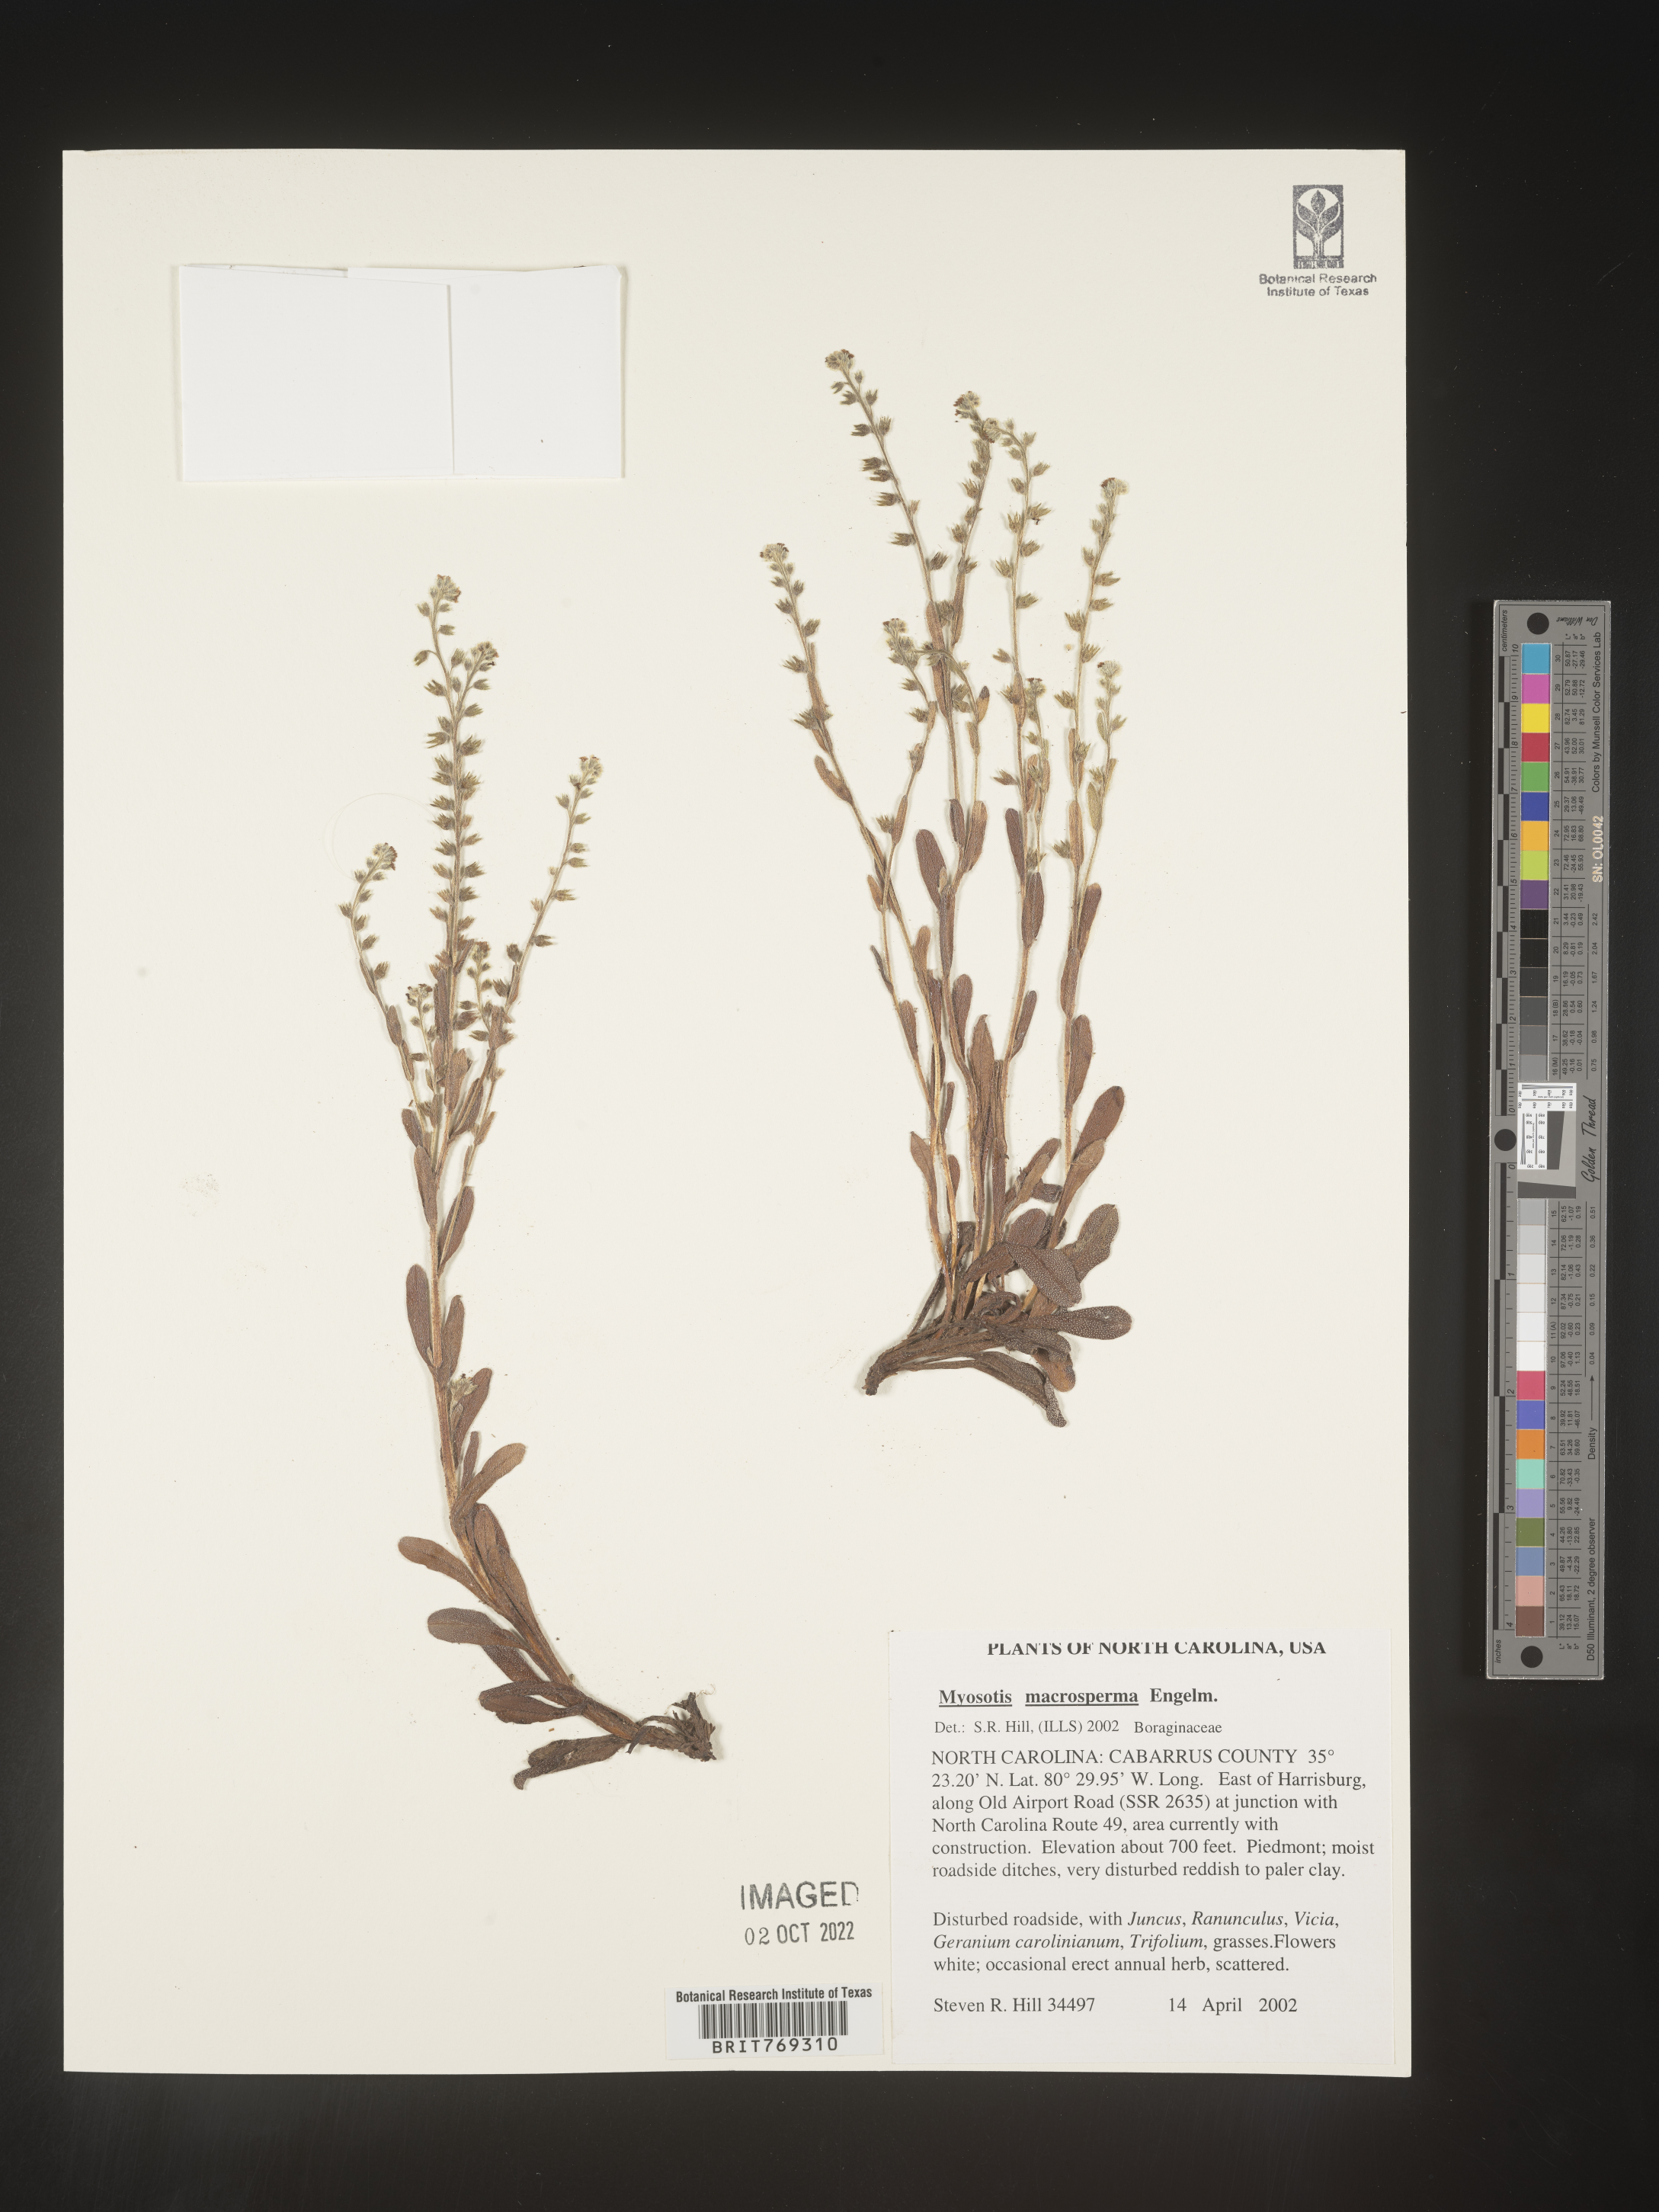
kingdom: Plantae
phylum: Tracheophyta
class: Magnoliopsida
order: Boraginales
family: Boraginaceae
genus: Myosotis
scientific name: Myosotis macrosperma
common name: Large-seed forget-me-not
